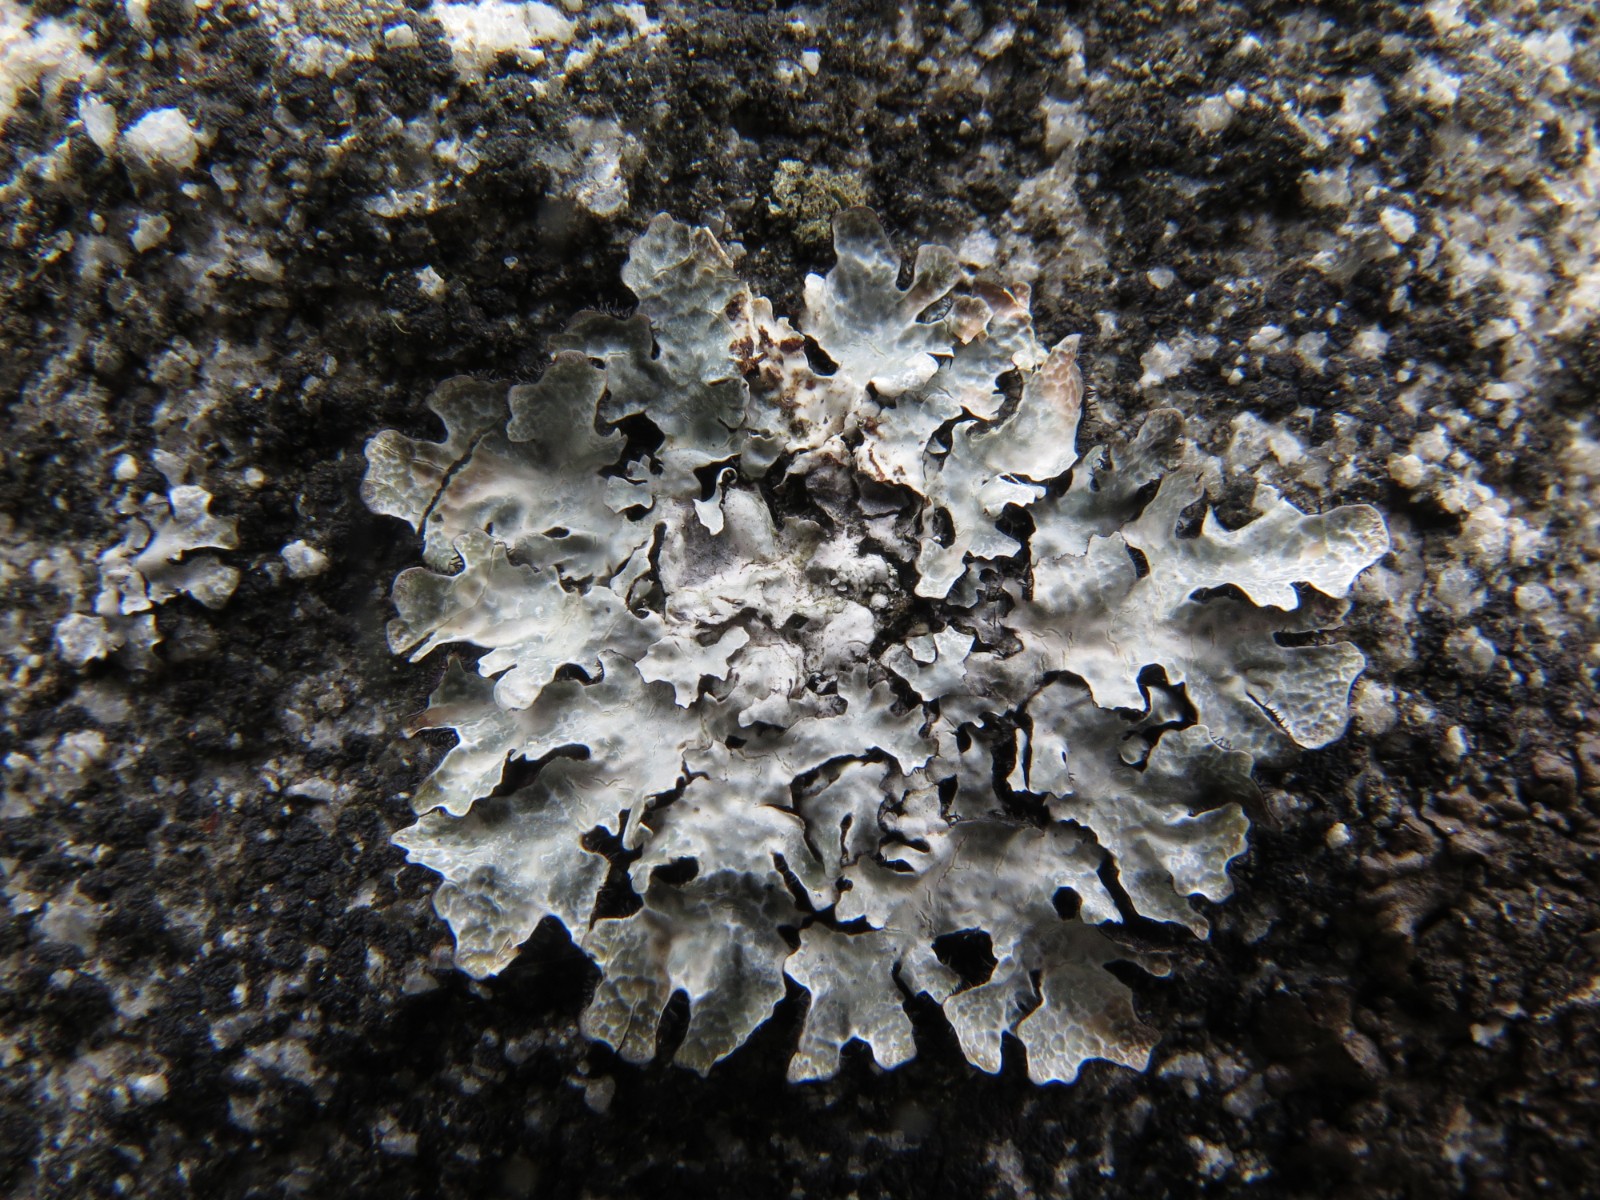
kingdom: Fungi
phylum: Ascomycota
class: Lecanoromycetes
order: Lecanorales
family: Parmeliaceae
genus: Parmelia
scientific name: Parmelia sulcata
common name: rynket skållav
